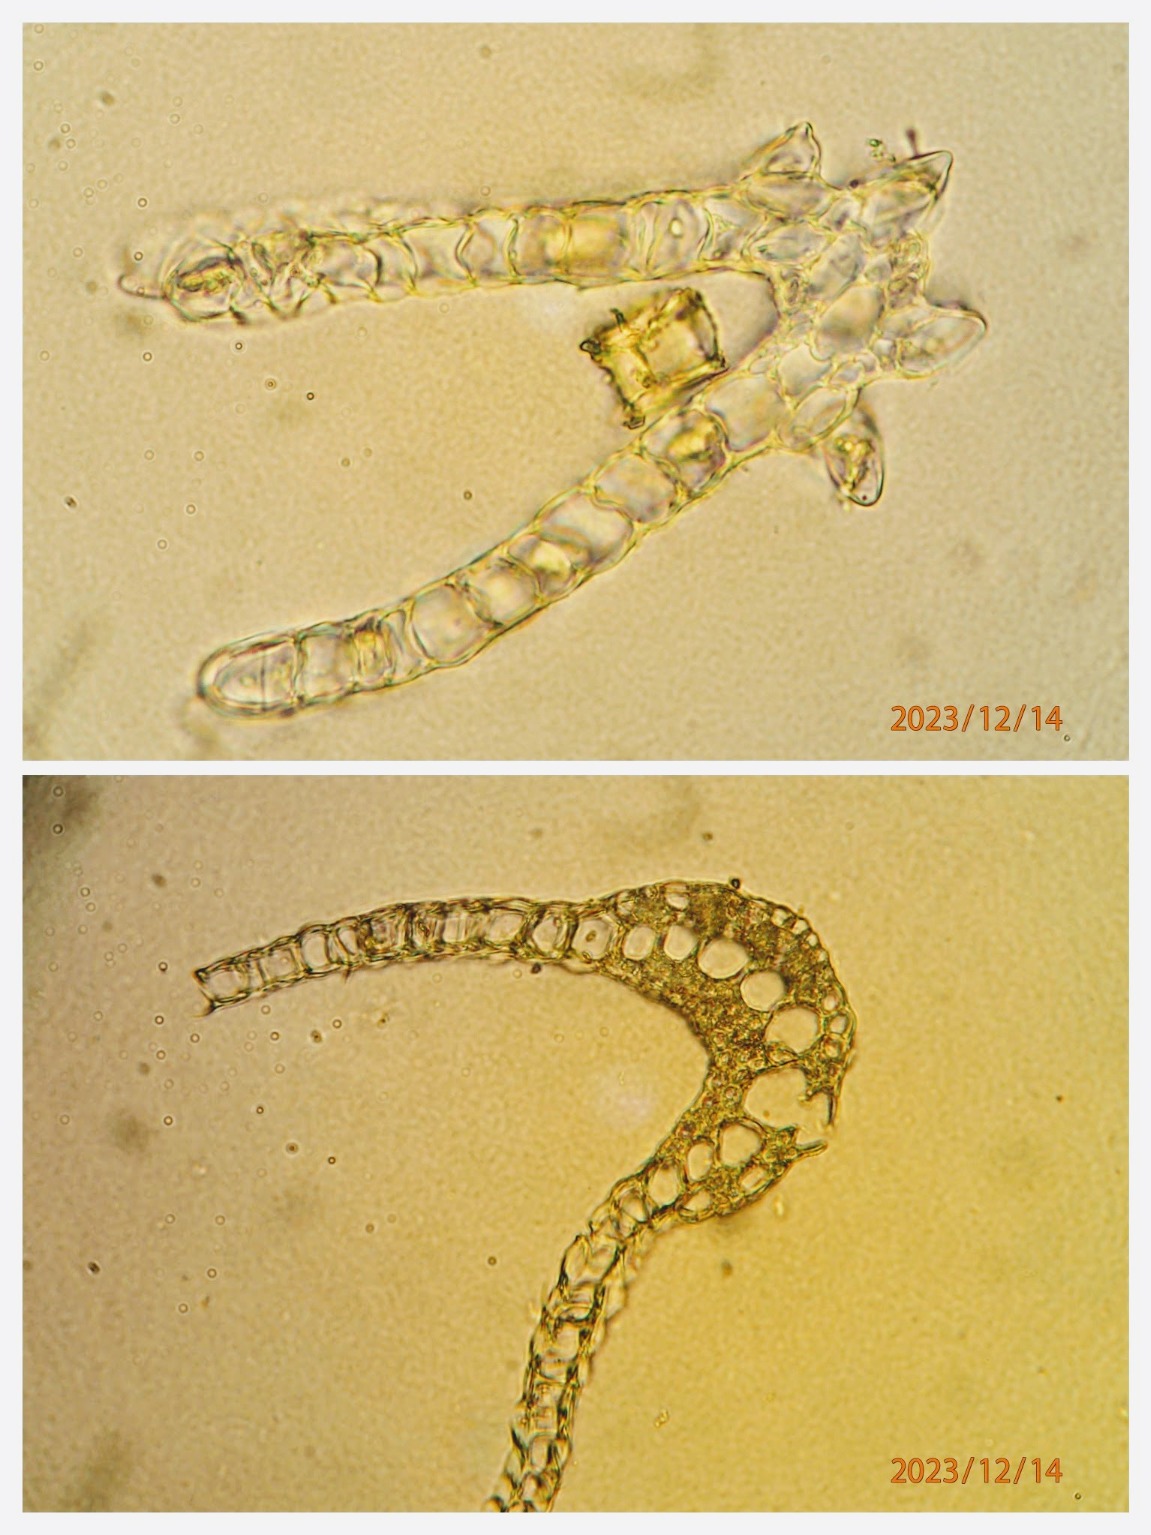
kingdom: Plantae
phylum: Bryophyta
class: Bryopsida
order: Dicranales
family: Dicranaceae
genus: Dicranum
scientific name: Dicranum scoparium
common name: Almindelig kløvtand
